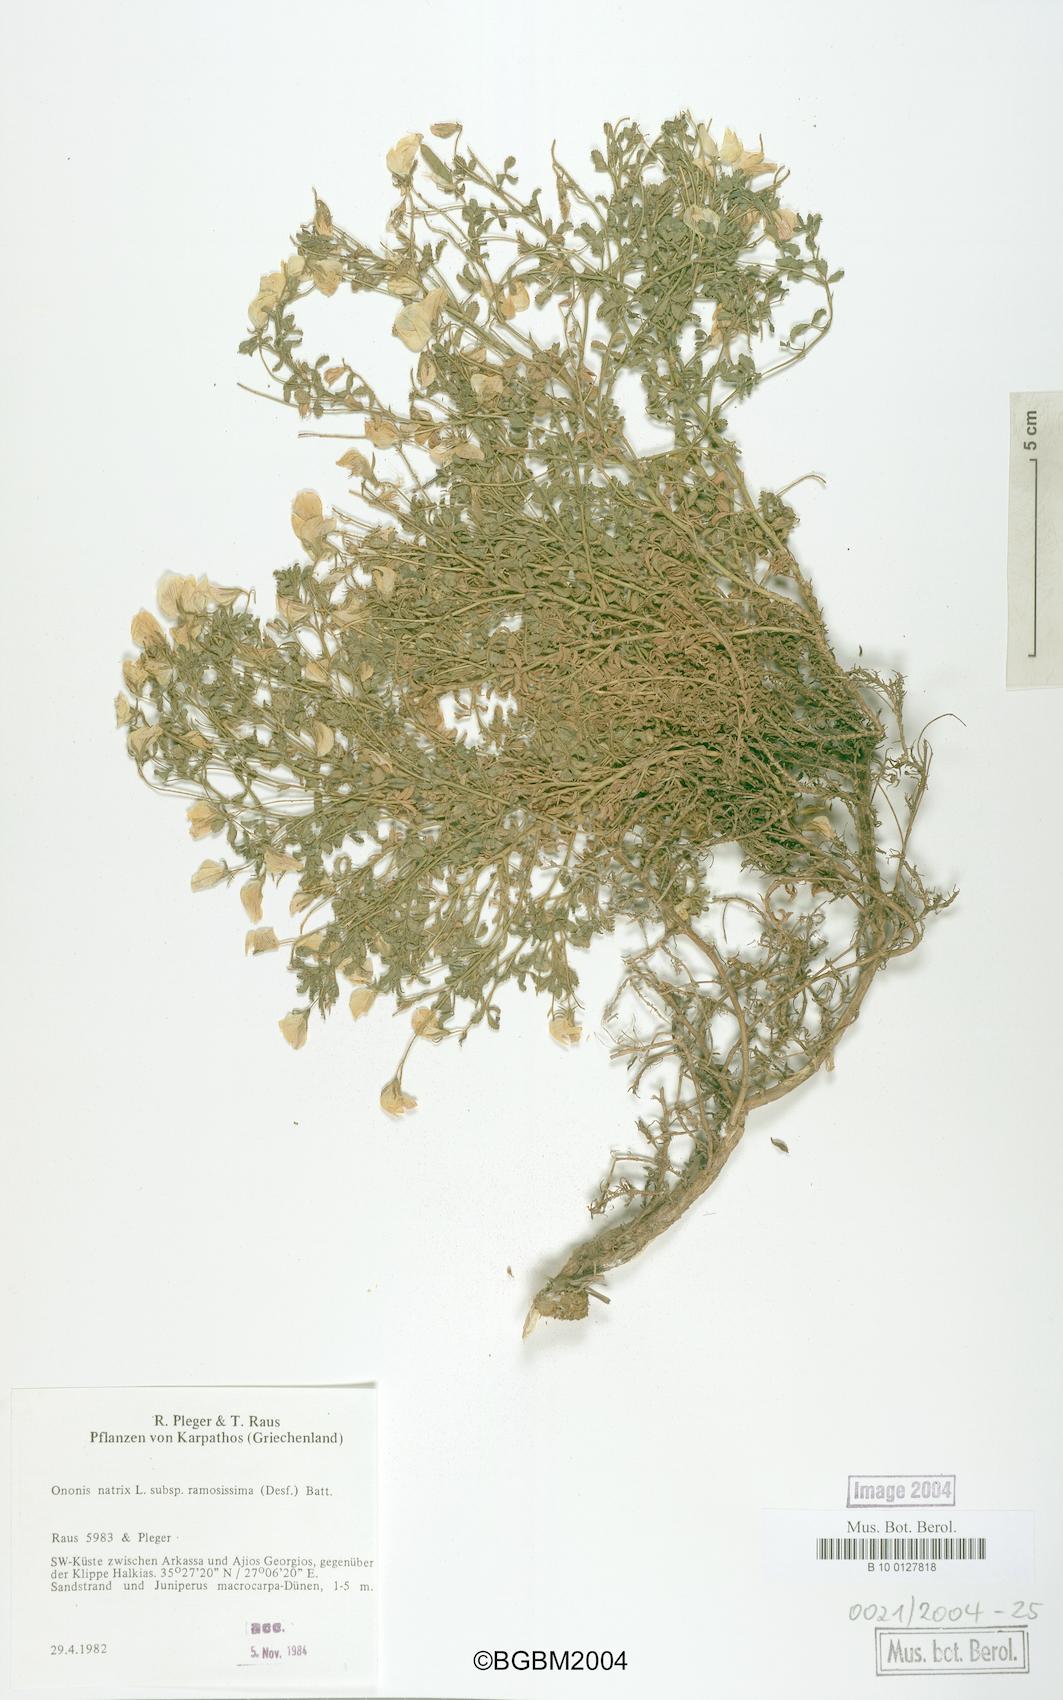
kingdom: Plantae
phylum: Tracheophyta
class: Magnoliopsida
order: Fabales
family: Fabaceae
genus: Ononis
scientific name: Ononis natrix
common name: Yellow restharrow
